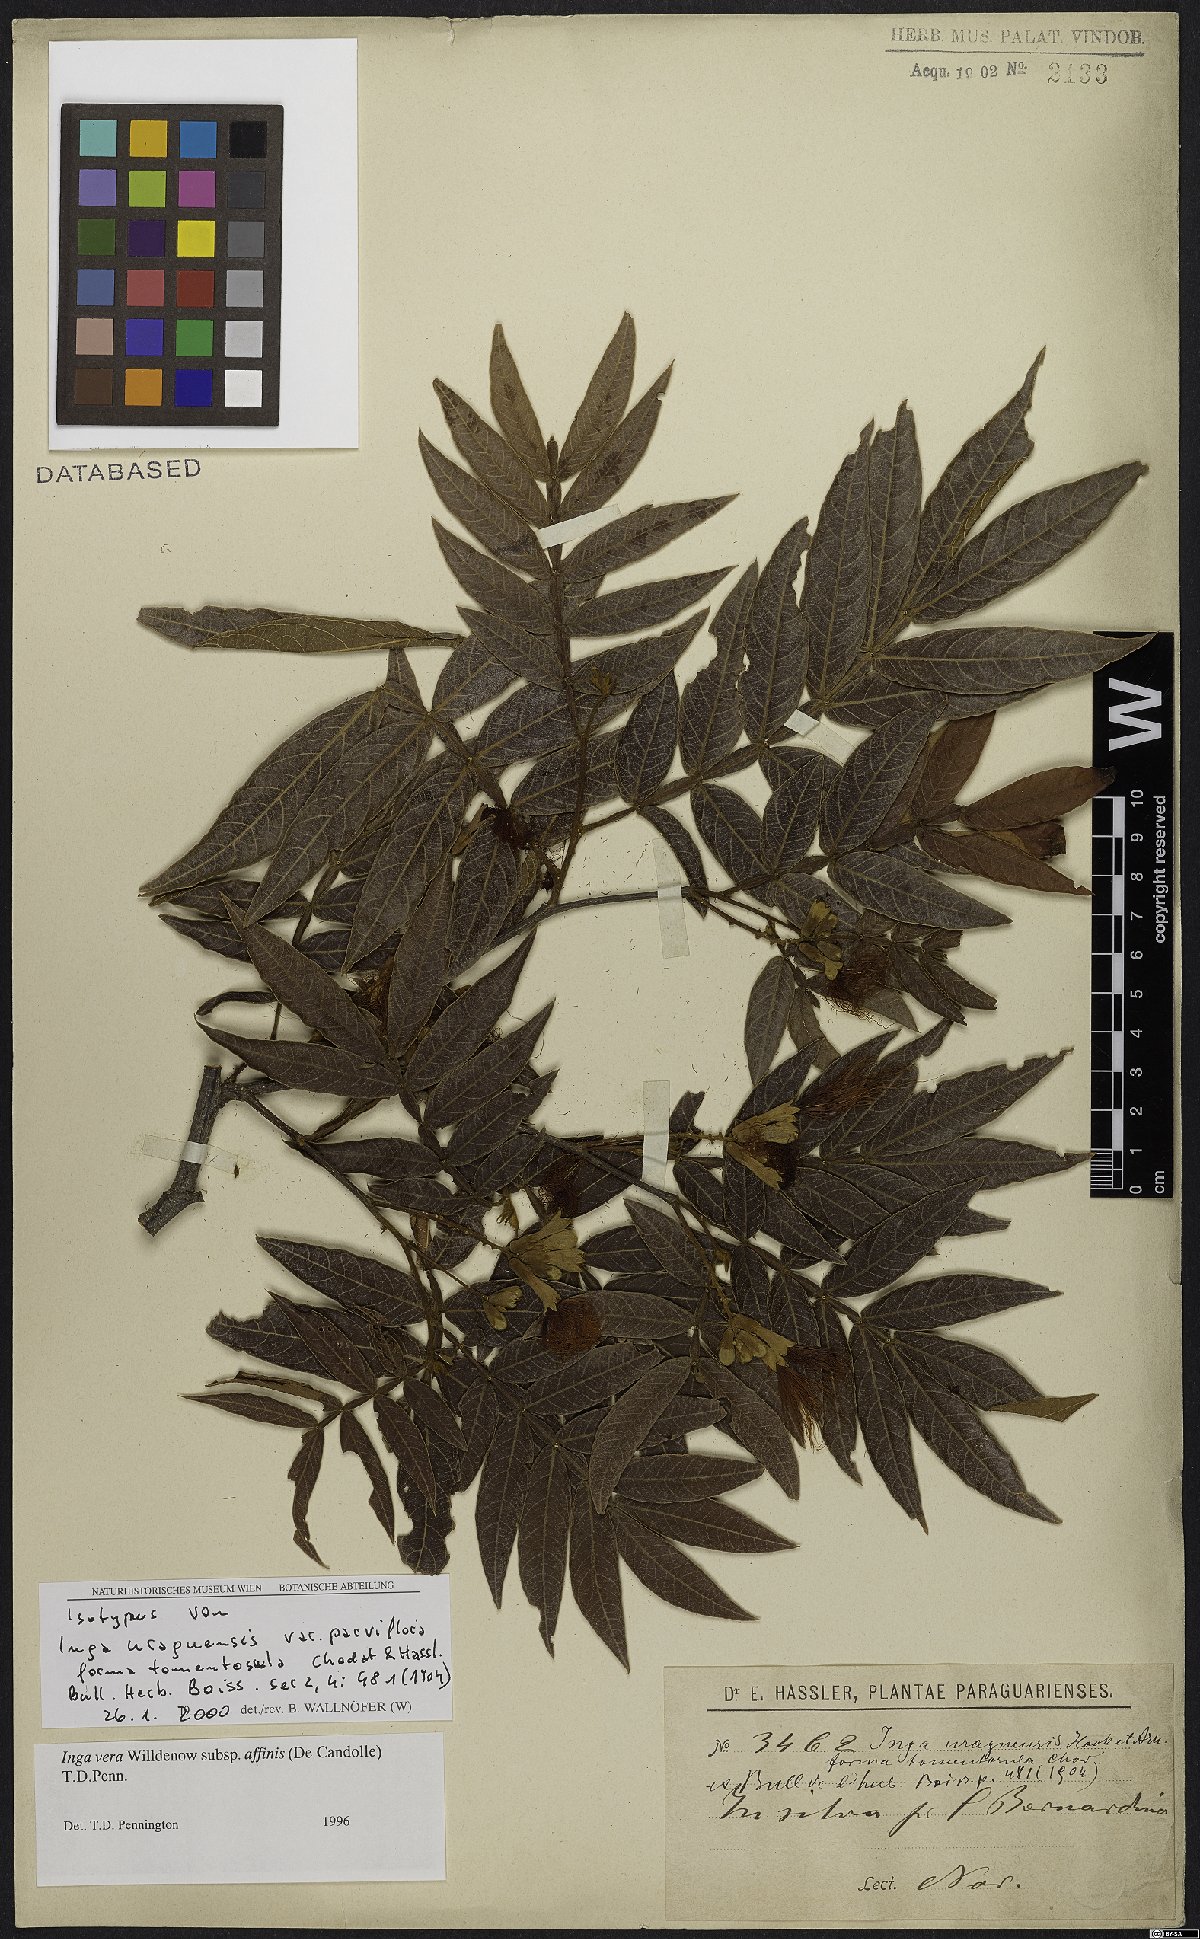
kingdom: Plantae
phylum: Tracheophyta
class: Magnoliopsida
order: Fabales
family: Fabaceae
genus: Inga
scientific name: Inga affinis
